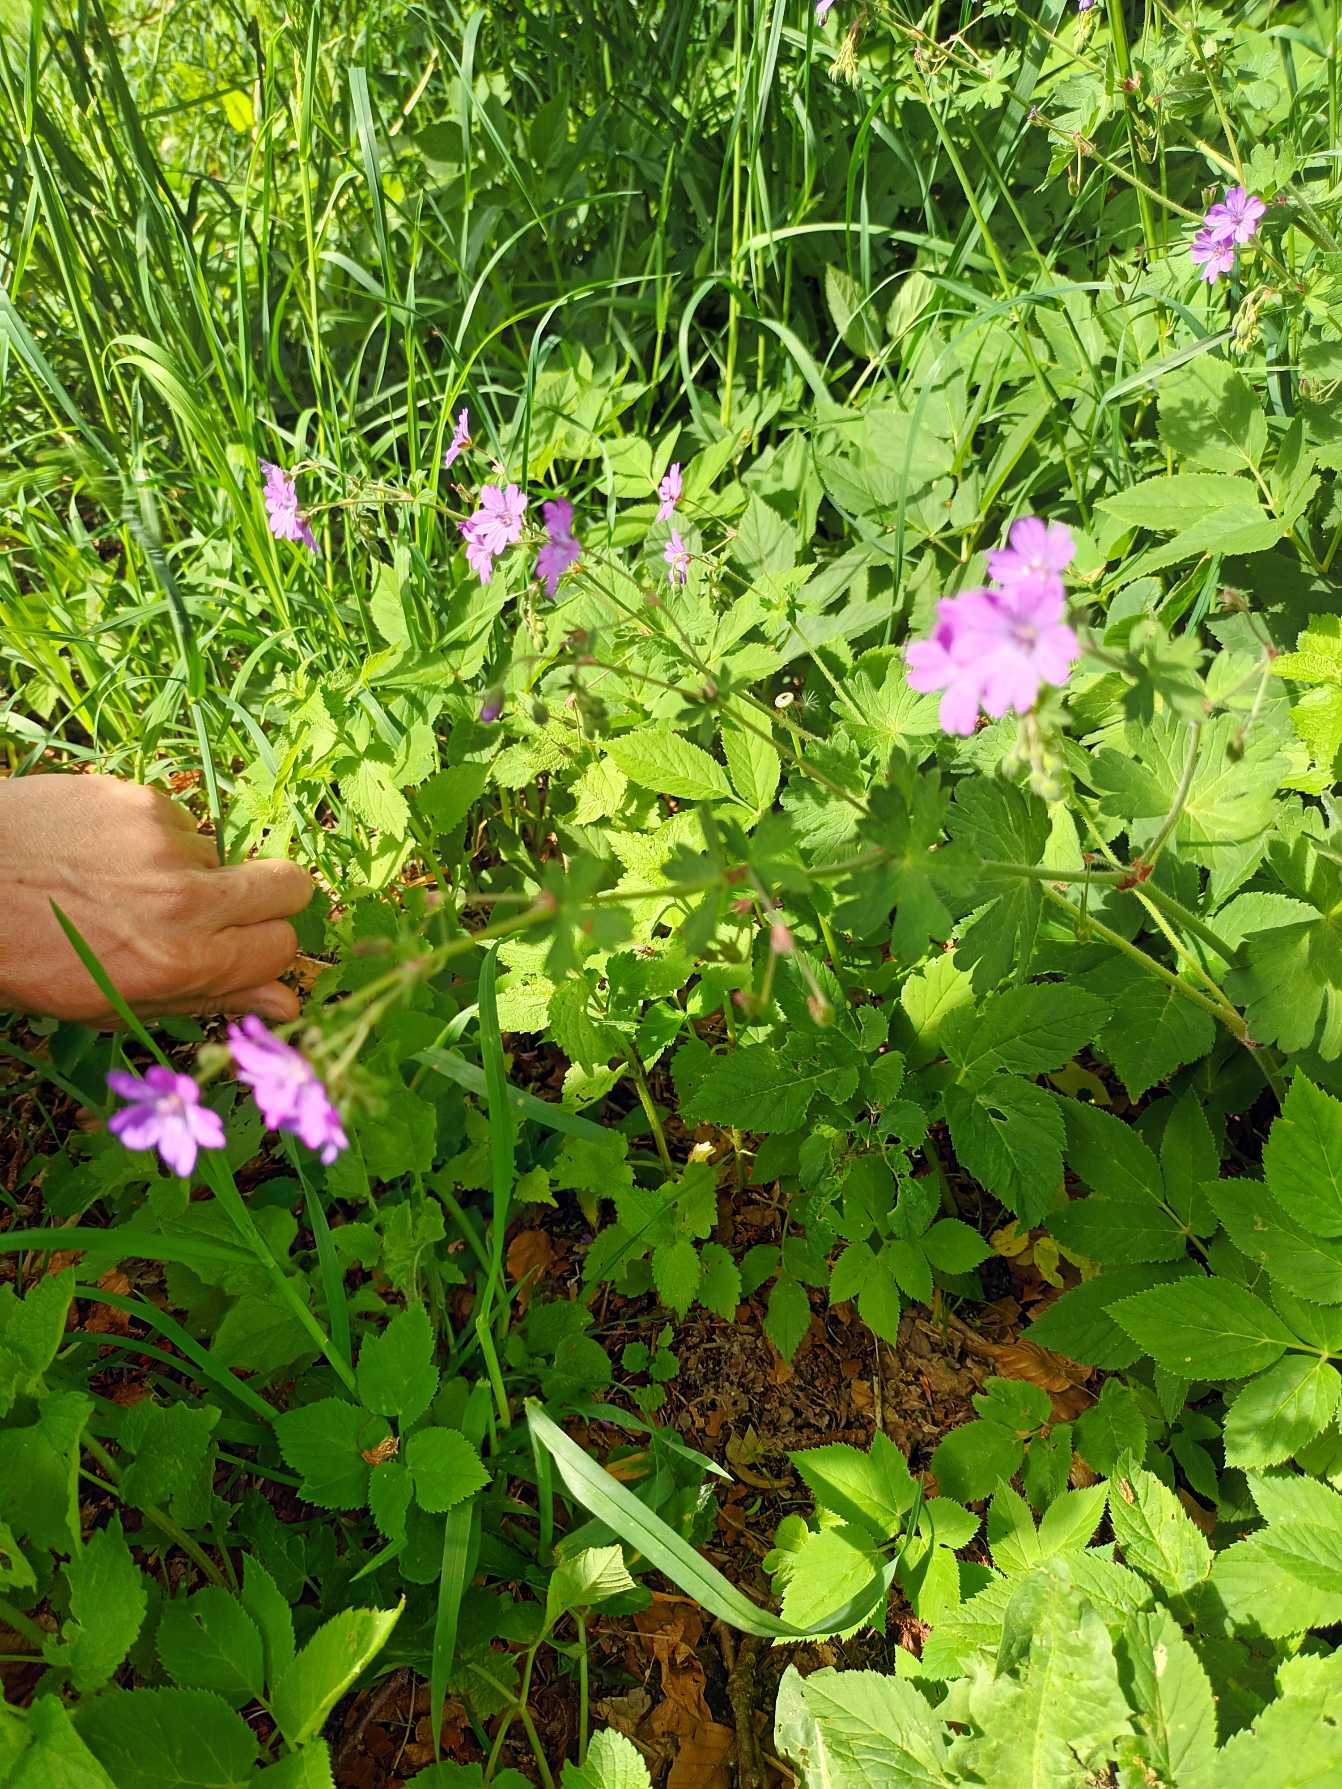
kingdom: Plantae
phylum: Tracheophyta
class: Magnoliopsida
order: Geraniales
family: Geraniaceae
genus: Geranium
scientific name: Geranium pyrenaicum
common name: Pyrenæisk storkenæb
